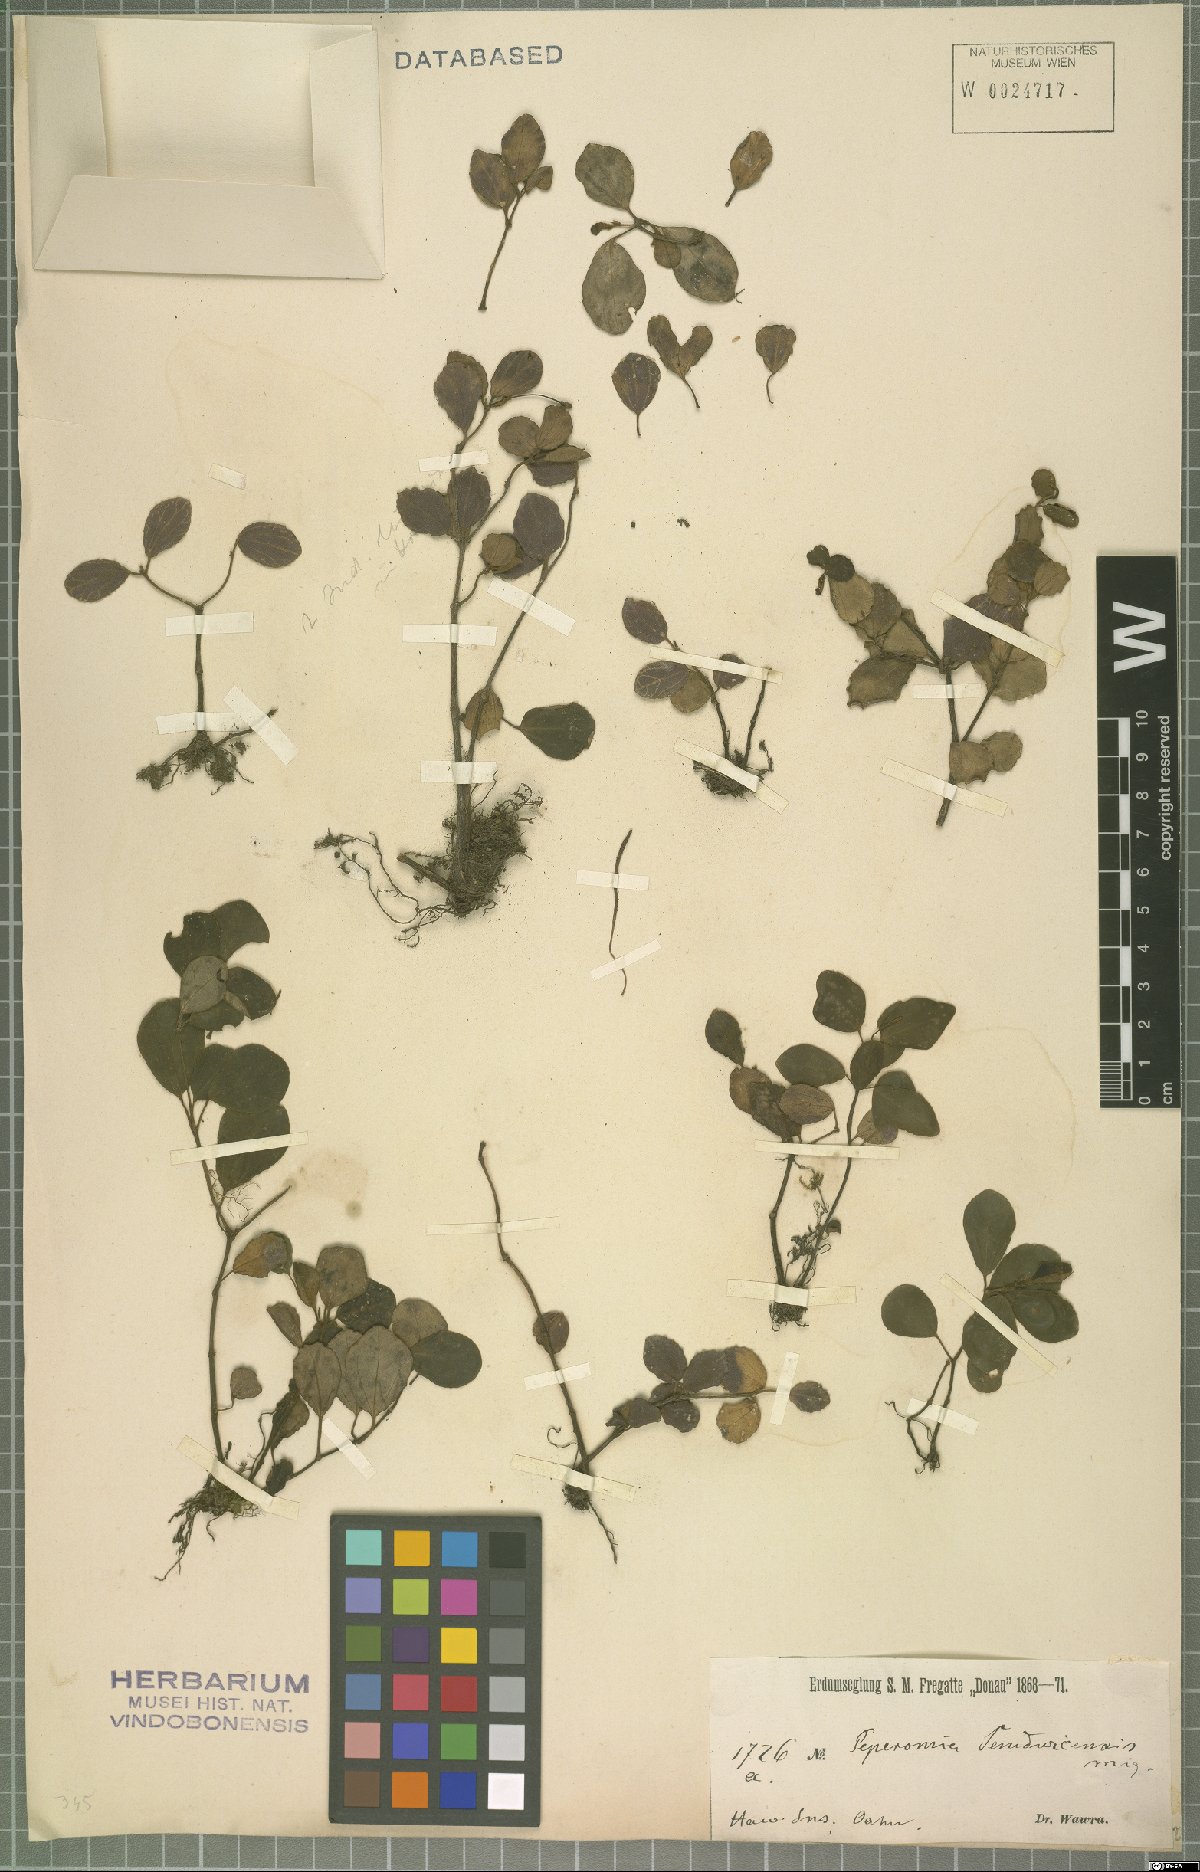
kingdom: Plantae
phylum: Tracheophyta
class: Magnoliopsida
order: Piperales
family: Piperaceae
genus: Peperomia
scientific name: Peperomia sandwicensis
